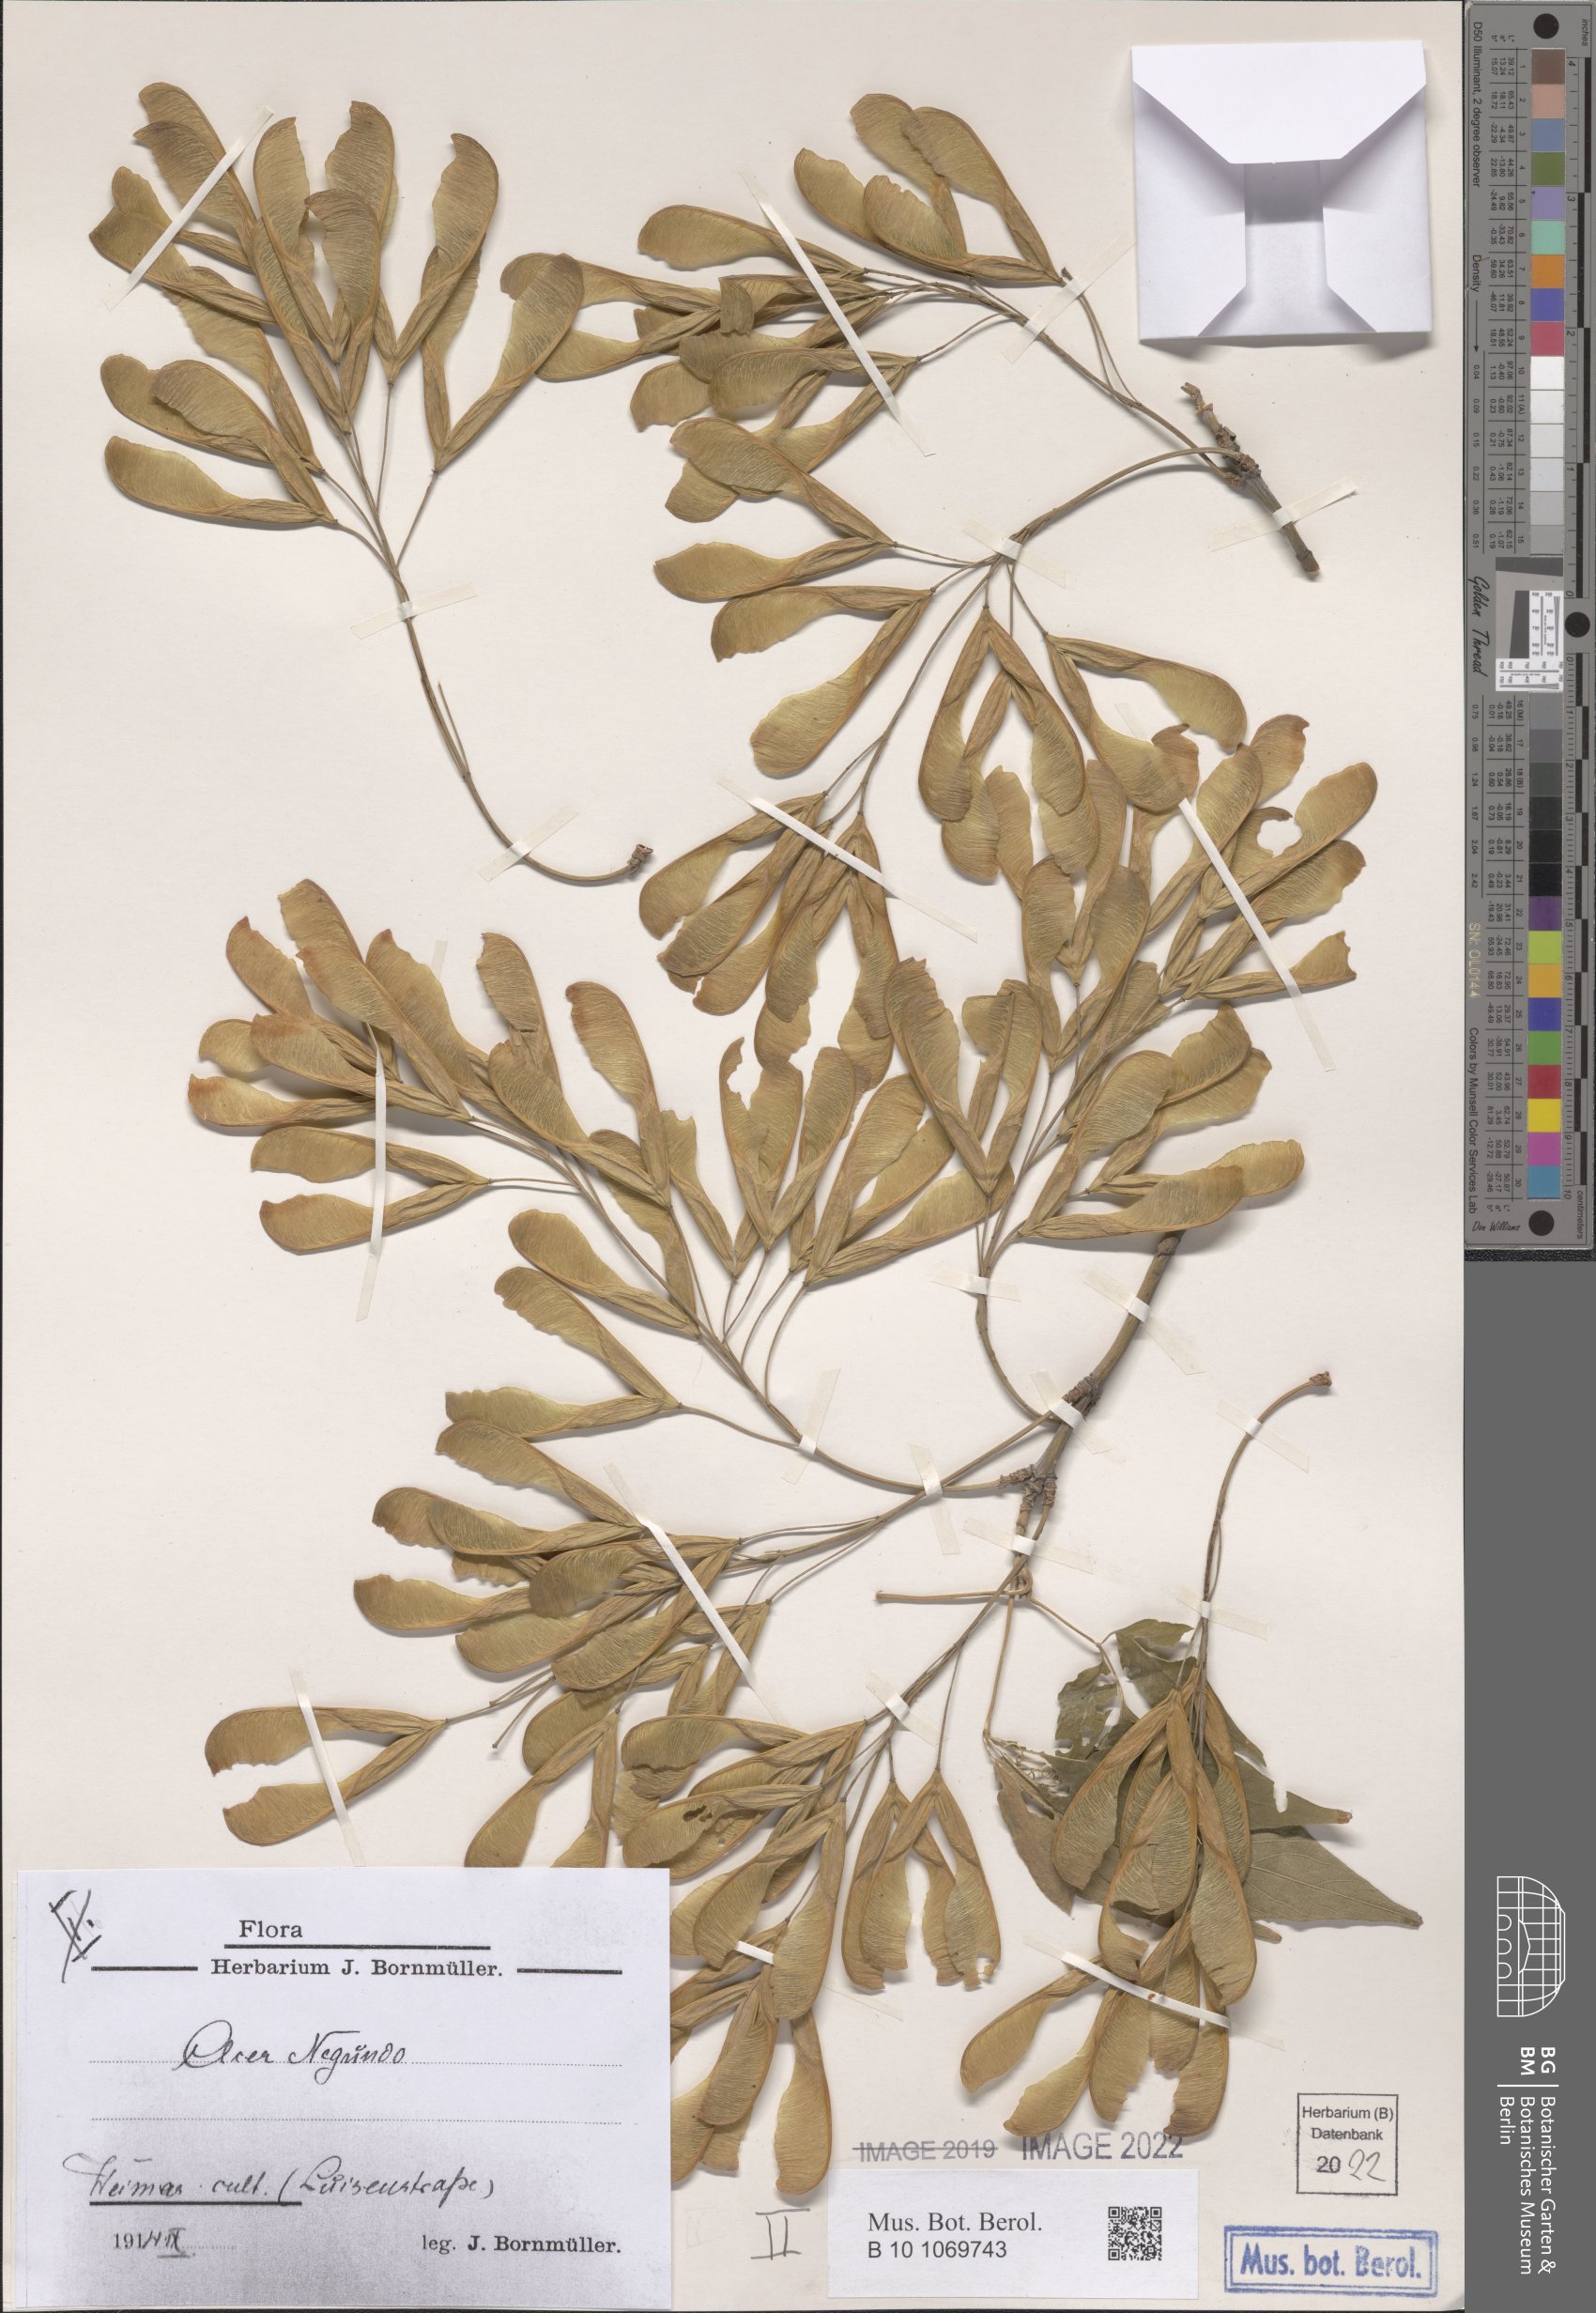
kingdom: Plantae
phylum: Tracheophyta
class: Magnoliopsida
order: Sapindales
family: Sapindaceae
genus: Acer
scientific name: Acer negundo
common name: Ashleaf maple
